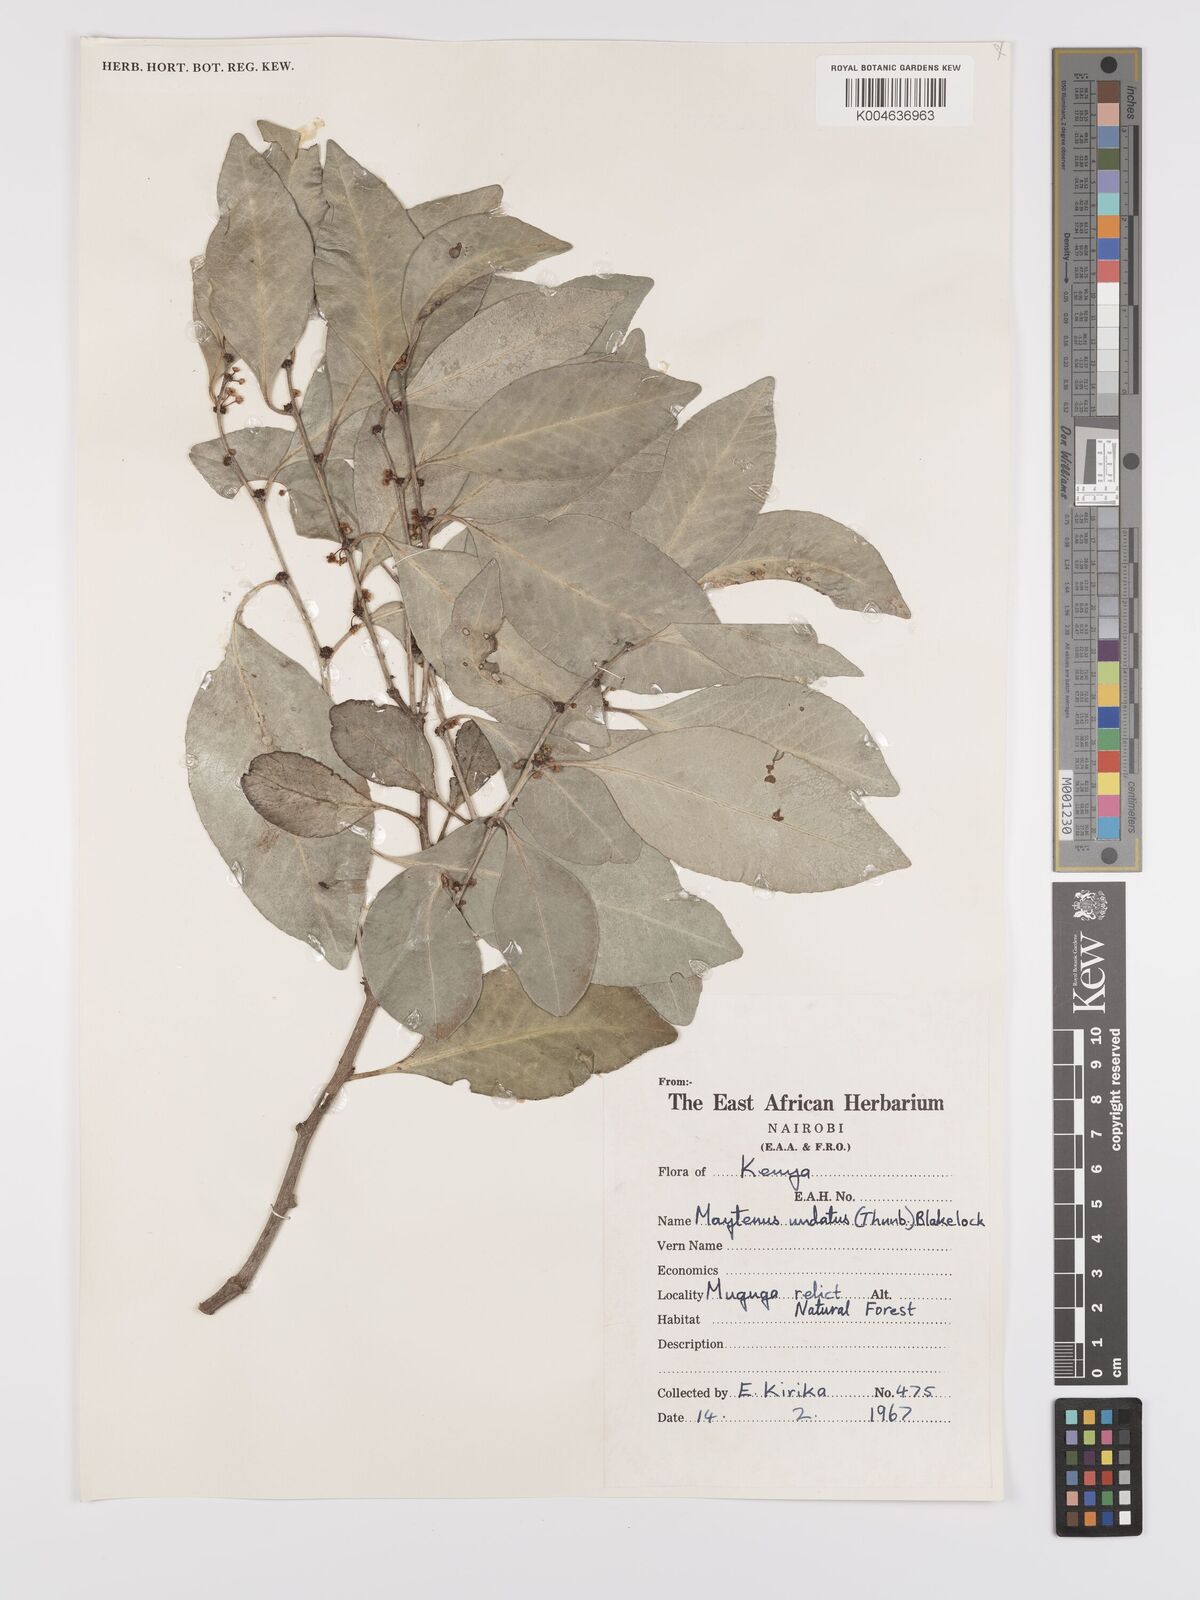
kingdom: Plantae
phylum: Tracheophyta
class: Magnoliopsida
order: Celastrales
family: Celastraceae
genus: Gymnosporia
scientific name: Gymnosporia undata
